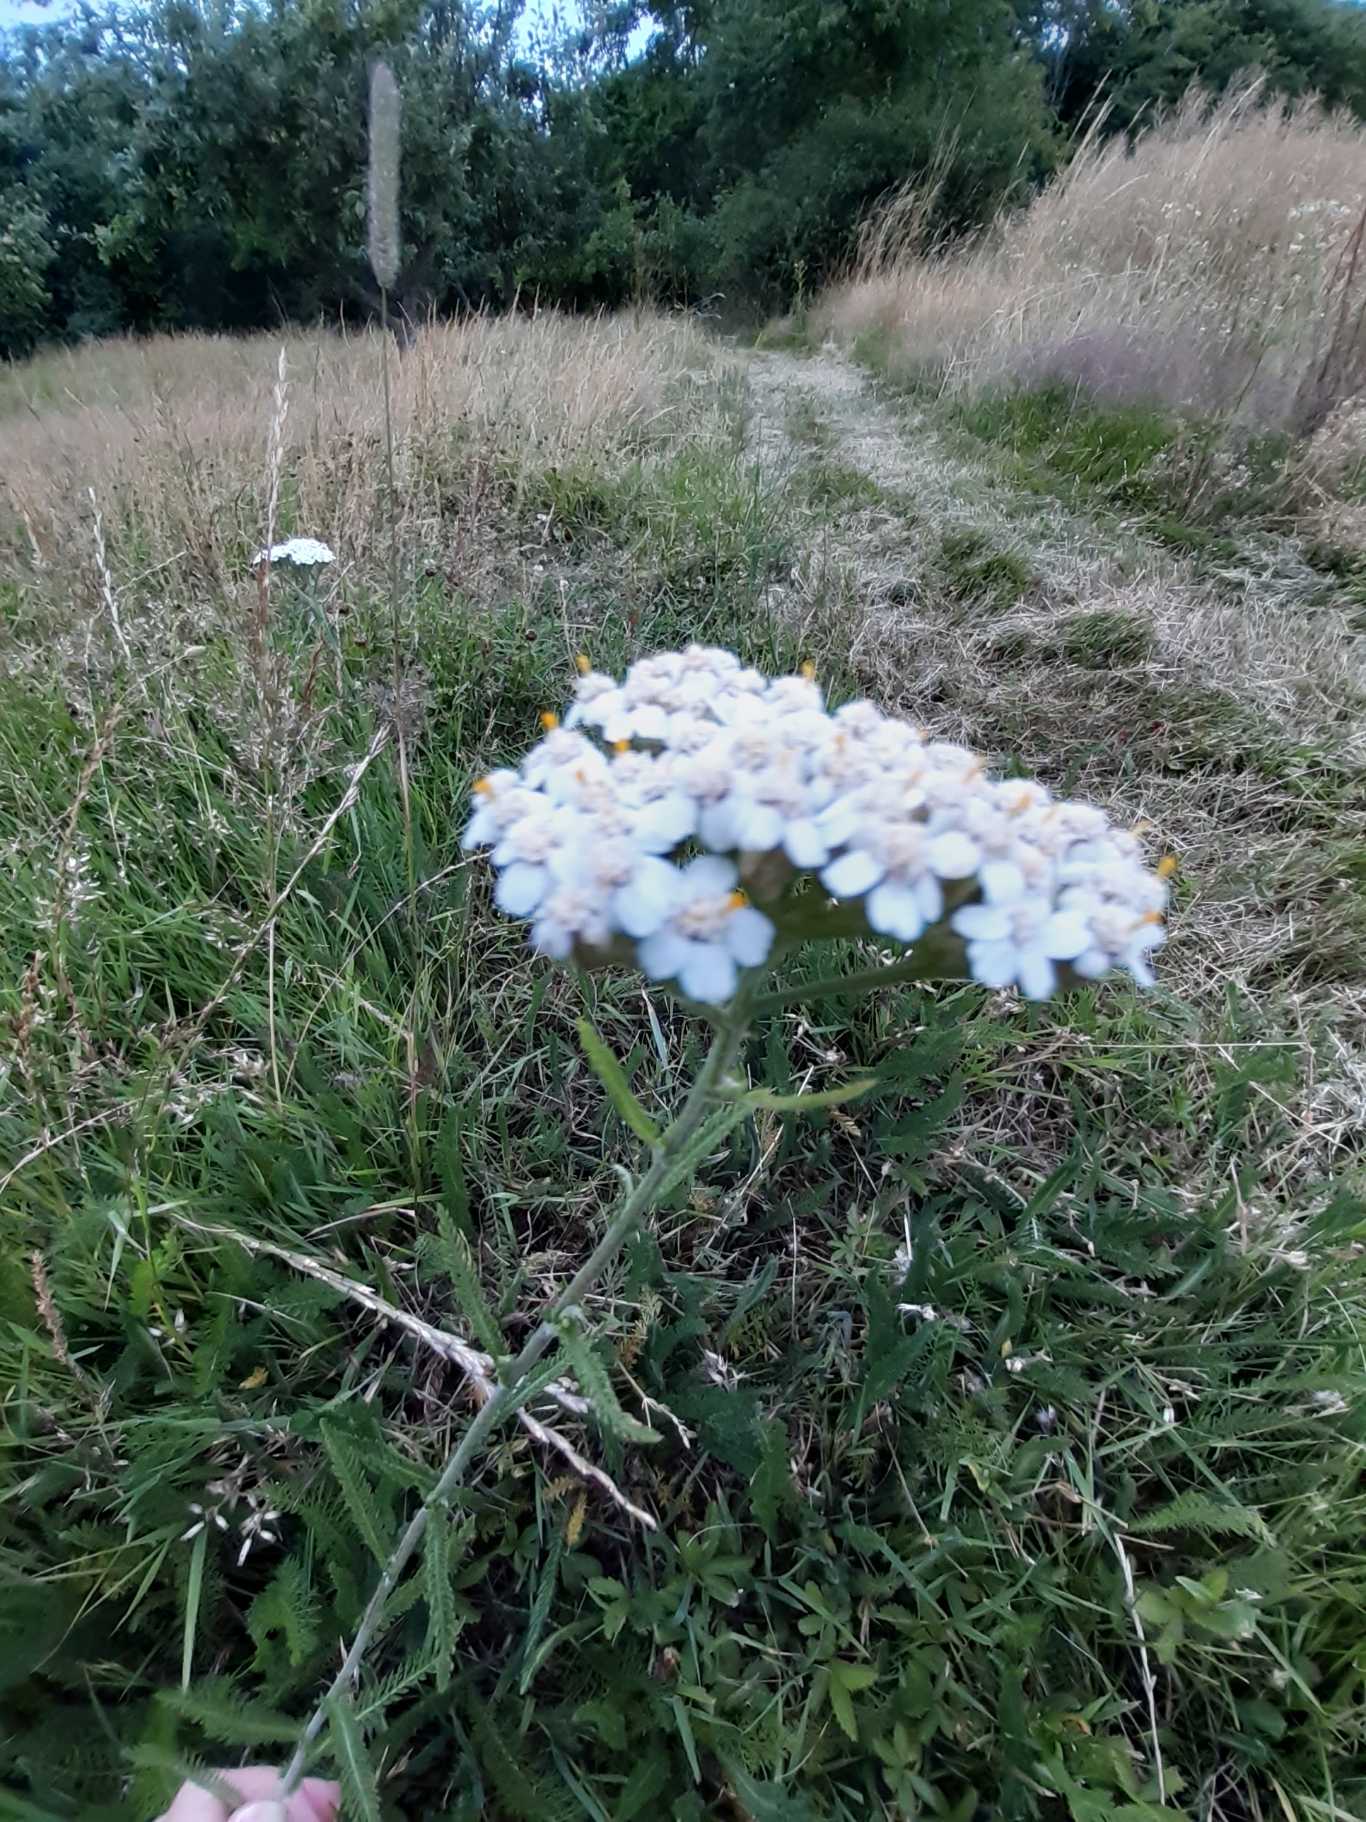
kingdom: Plantae
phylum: Tracheophyta
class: Magnoliopsida
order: Asterales
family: Asteraceae
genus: Achillea
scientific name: Achillea millefolium
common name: Almindelig røllike
